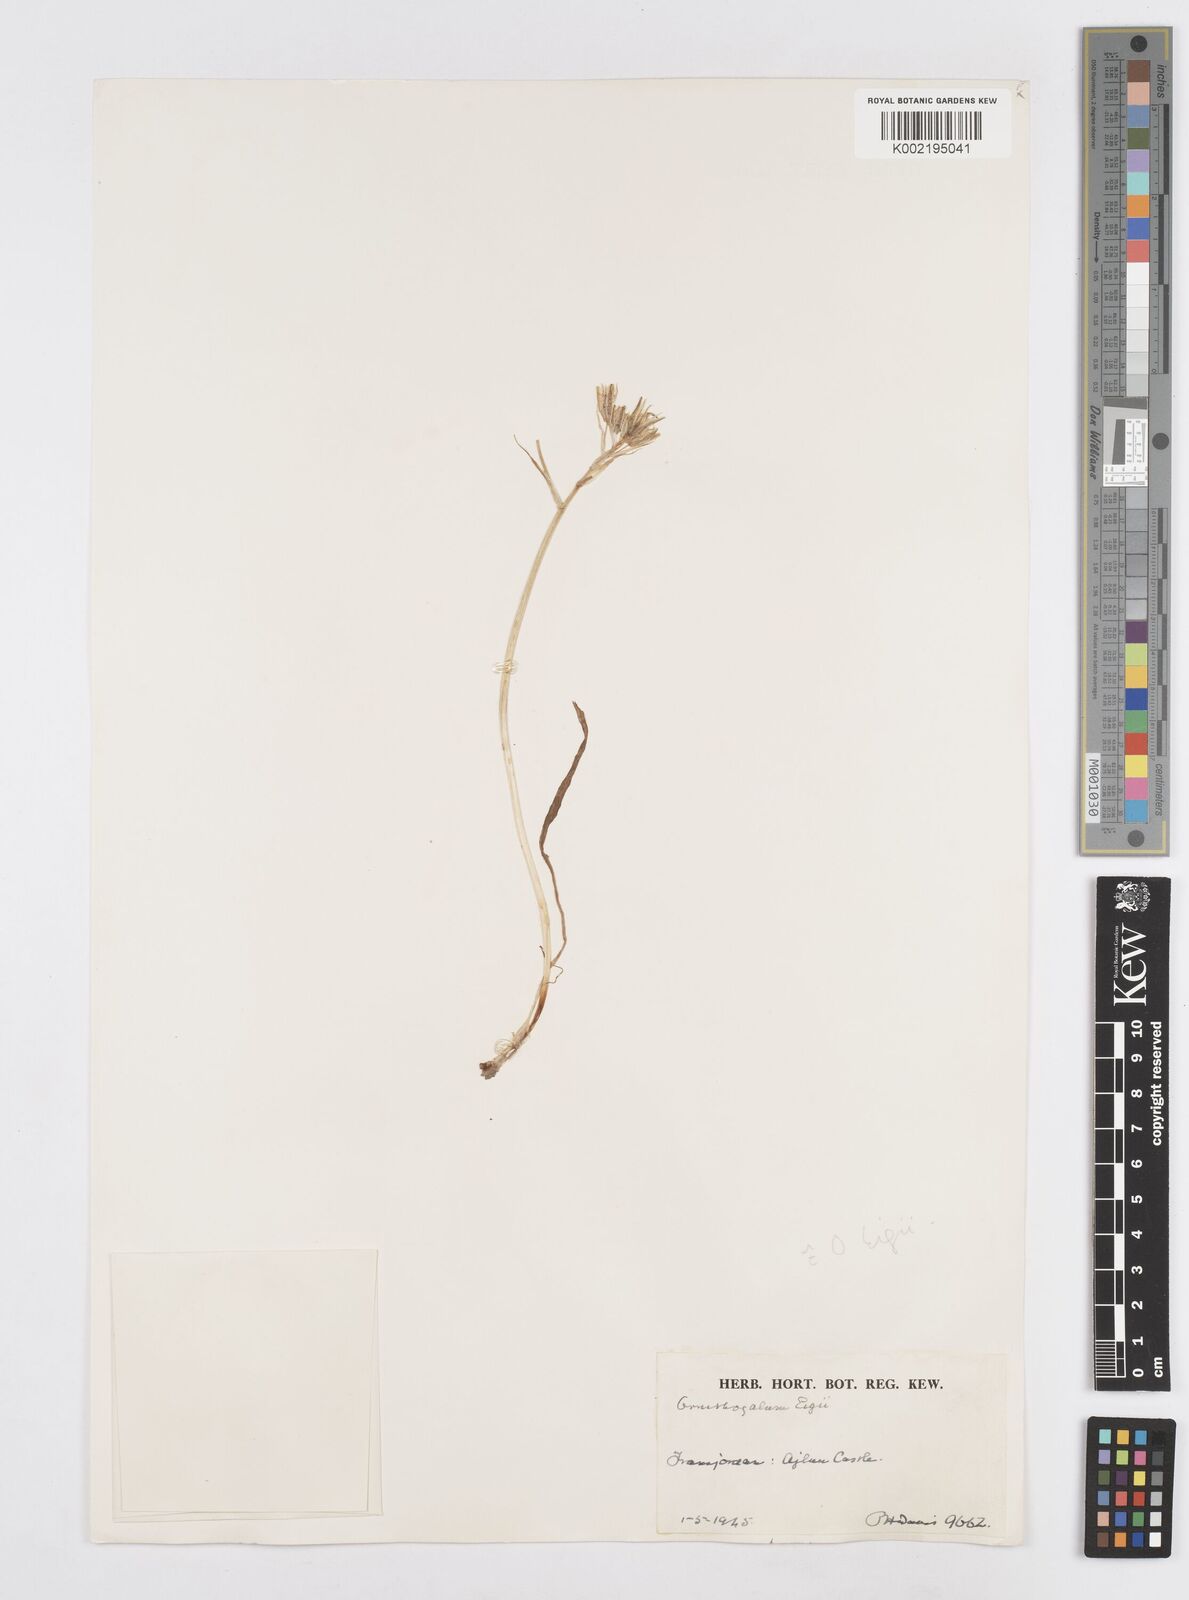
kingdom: Plantae
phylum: Tracheophyta
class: Liliopsida
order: Asparagales
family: Asparagaceae
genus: Ornithogalum
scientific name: Ornithogalum neurostegium
